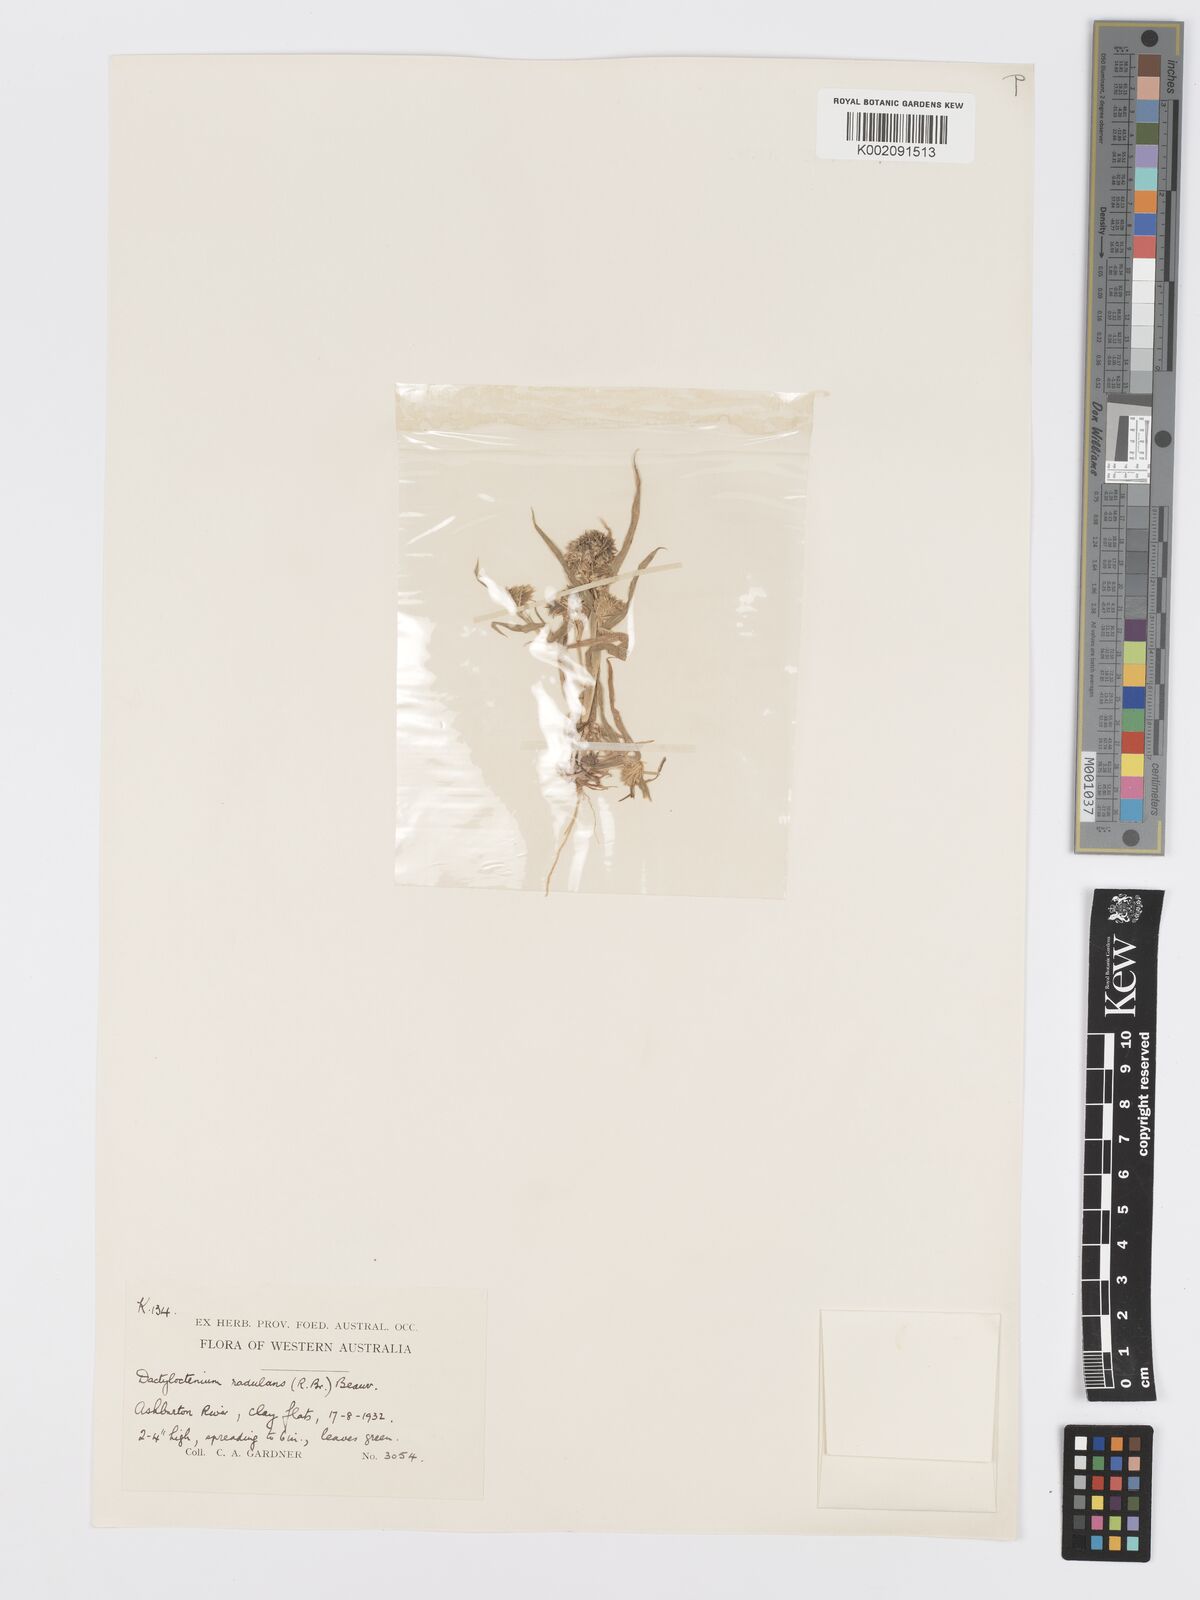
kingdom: Plantae
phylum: Tracheophyta
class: Liliopsida
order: Poales
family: Poaceae
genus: Dactyloctenium
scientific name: Dactyloctenium radulans
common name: Button-grass
